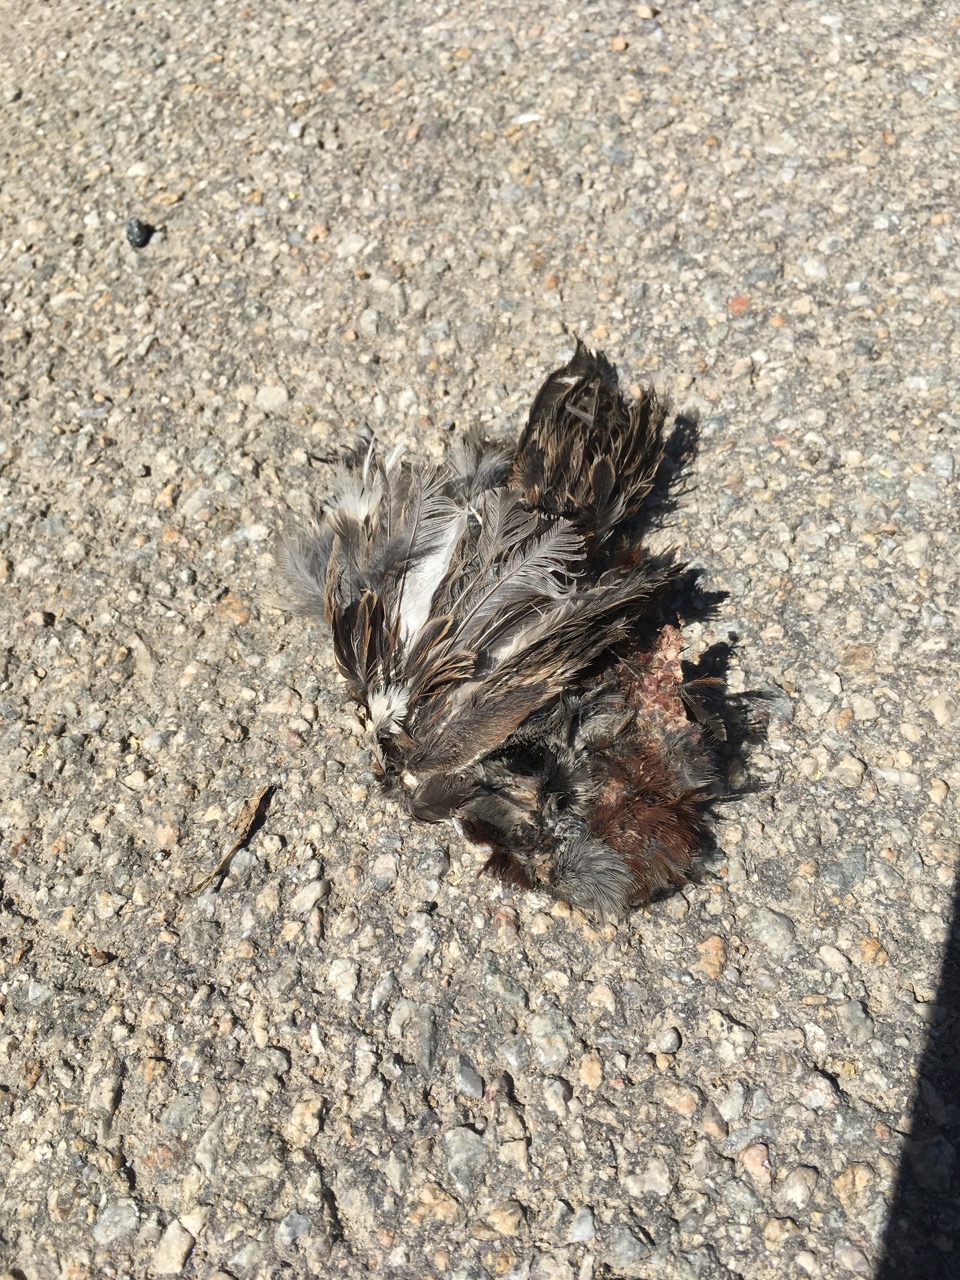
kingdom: Animalia
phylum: Chordata
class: Aves
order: Passeriformes
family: Passeridae
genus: Passer
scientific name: Passer domesticus
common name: House sparrow
